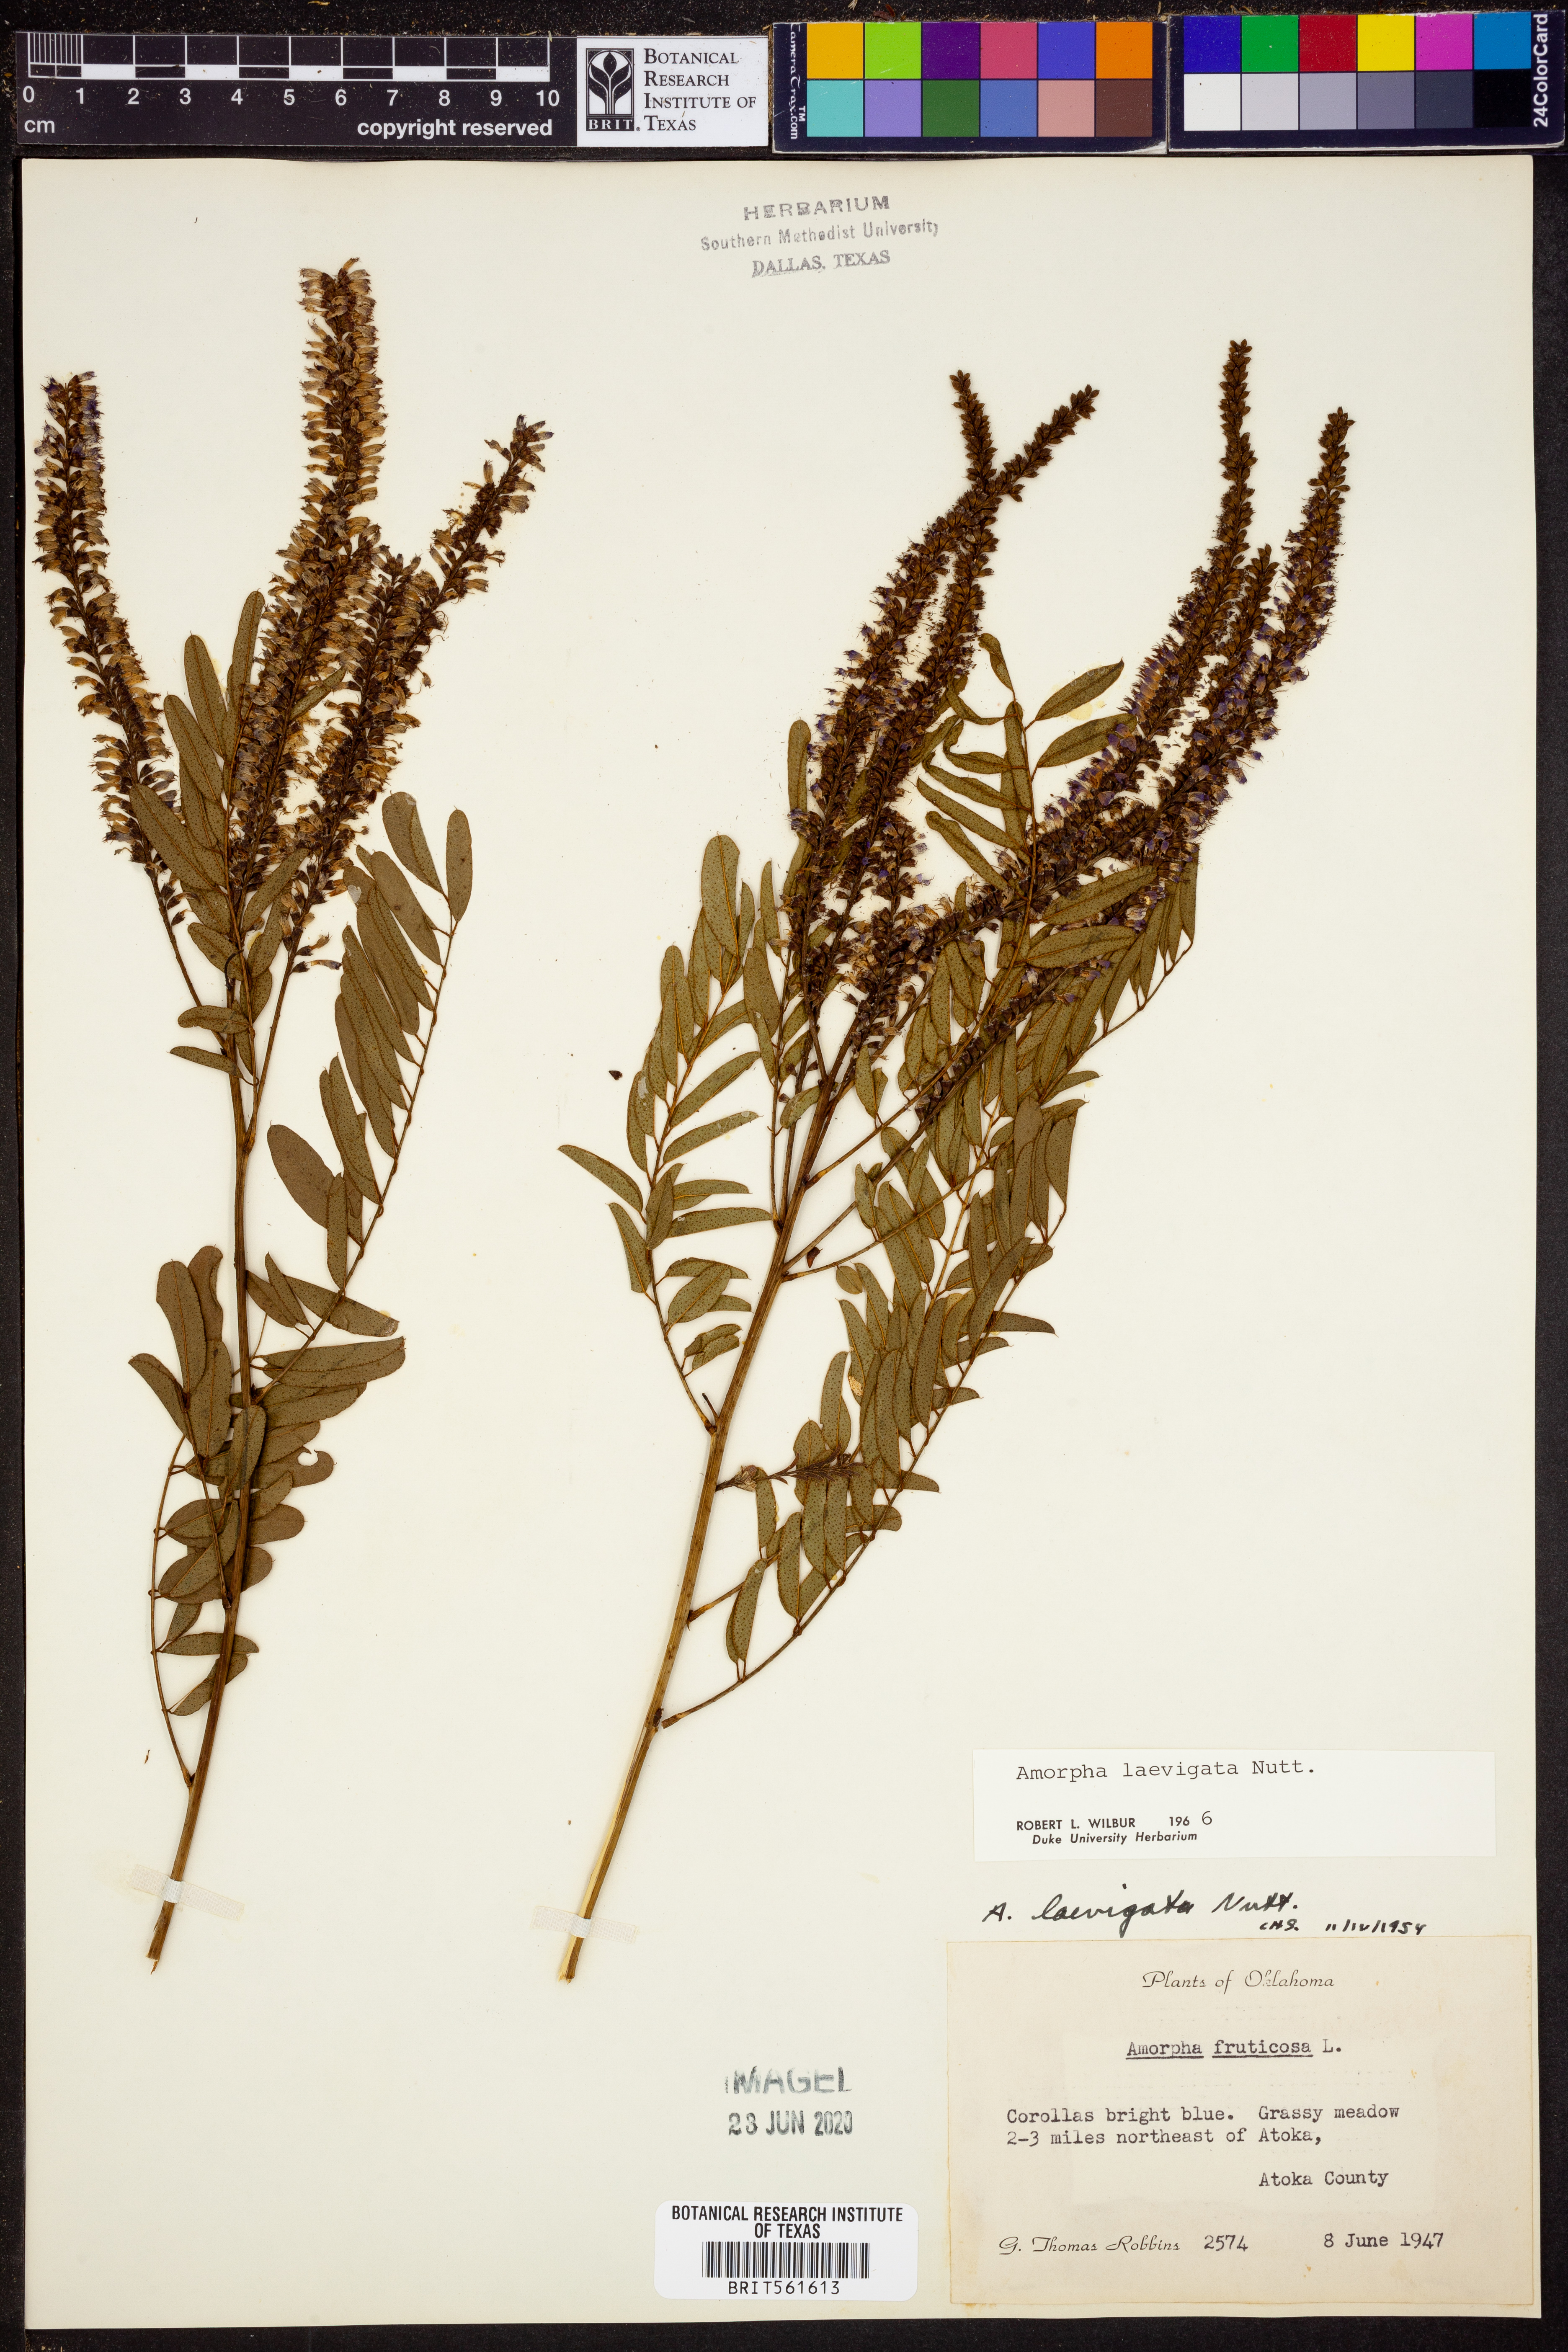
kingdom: Plantae
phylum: Tracheophyta
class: Magnoliopsida
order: Fabales
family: Fabaceae
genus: Amorpha
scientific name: Amorpha laevigata
